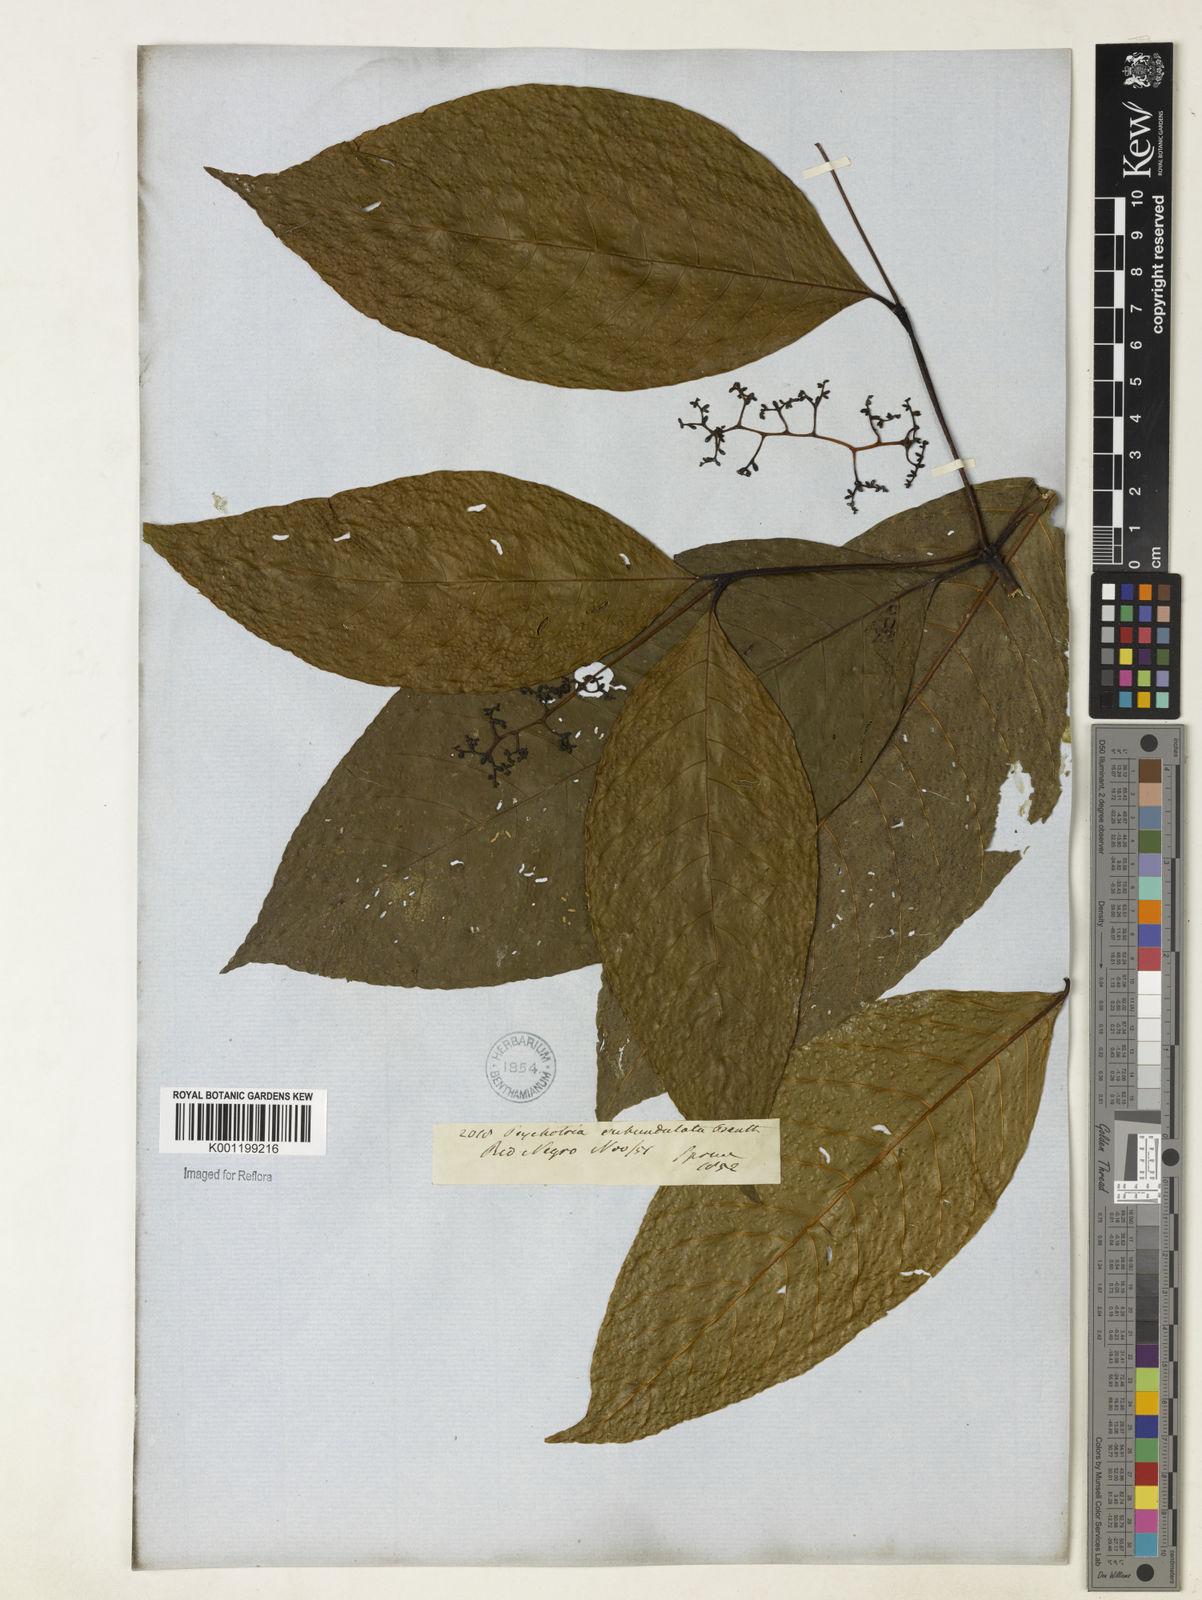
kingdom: Plantae
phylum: Tracheophyta
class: Magnoliopsida
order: Gentianales
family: Rubiaceae
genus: Palicourea
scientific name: Palicourea subundulata
